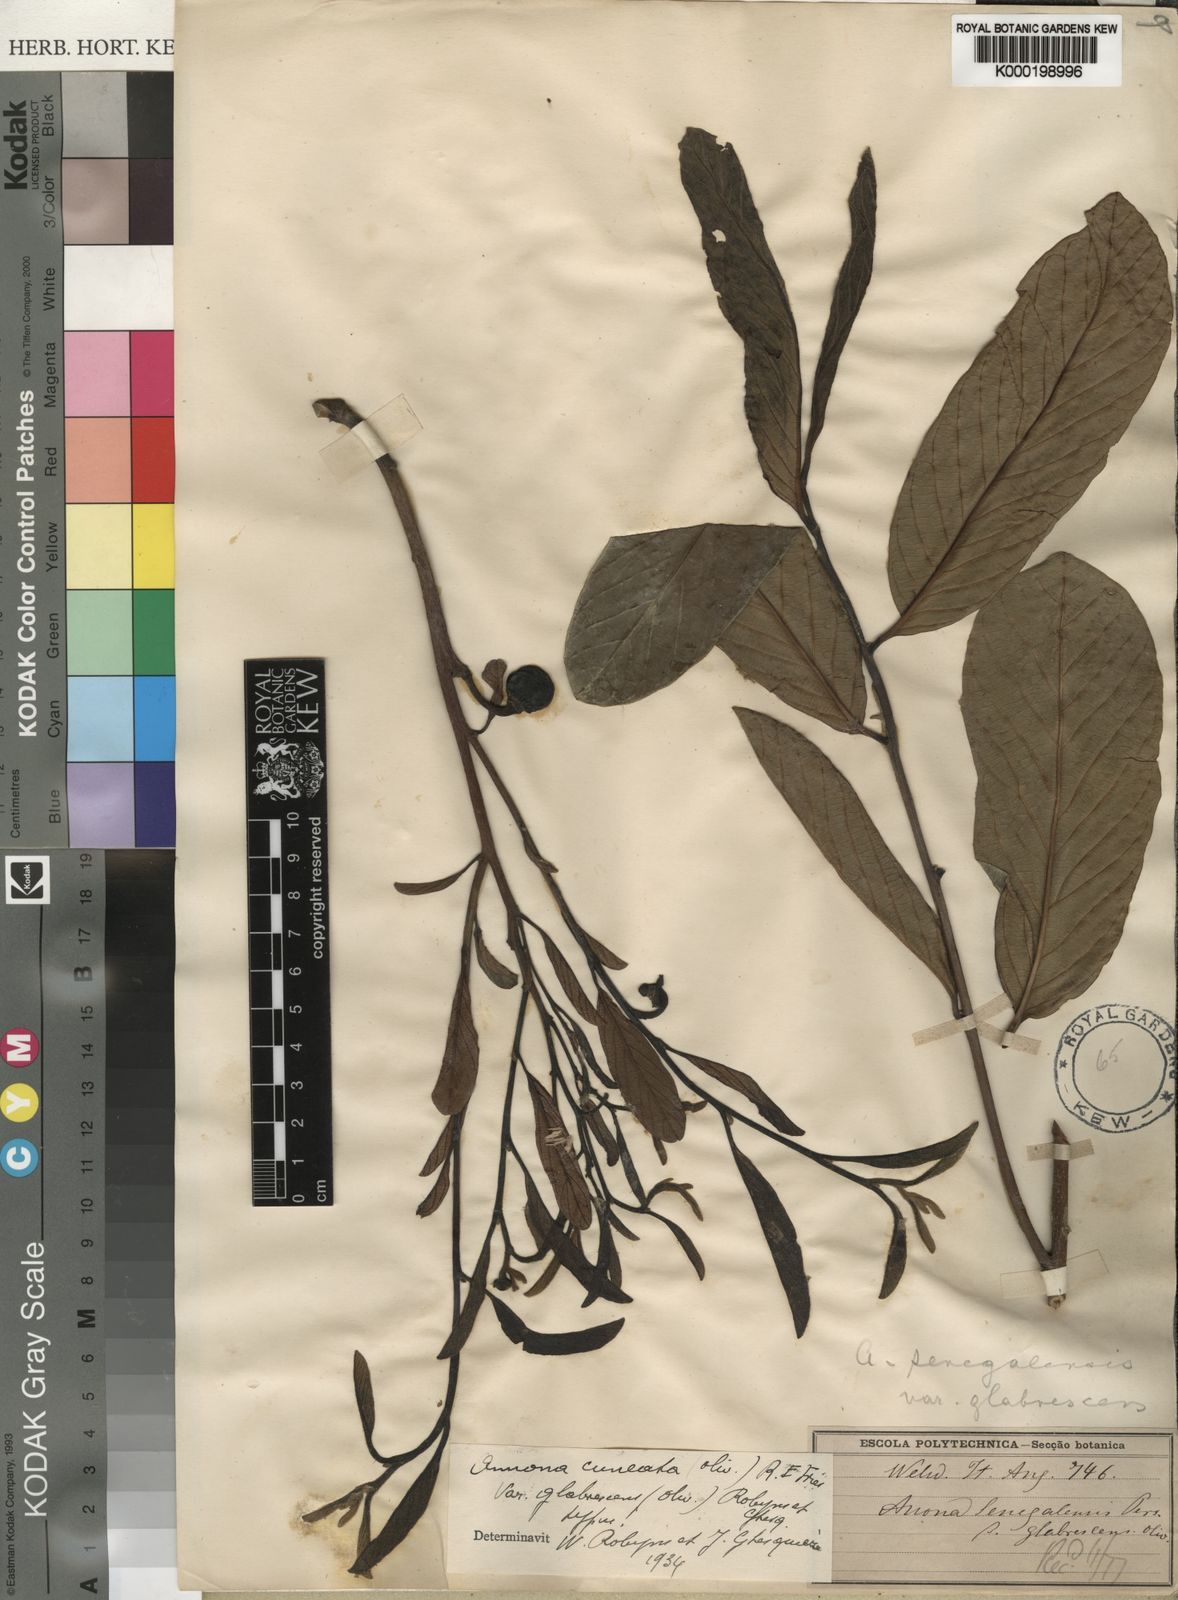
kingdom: Plantae
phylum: Tracheophyta
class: Magnoliopsida
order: Magnoliales
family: Annonaceae
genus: Annona
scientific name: Annona stenophylla
